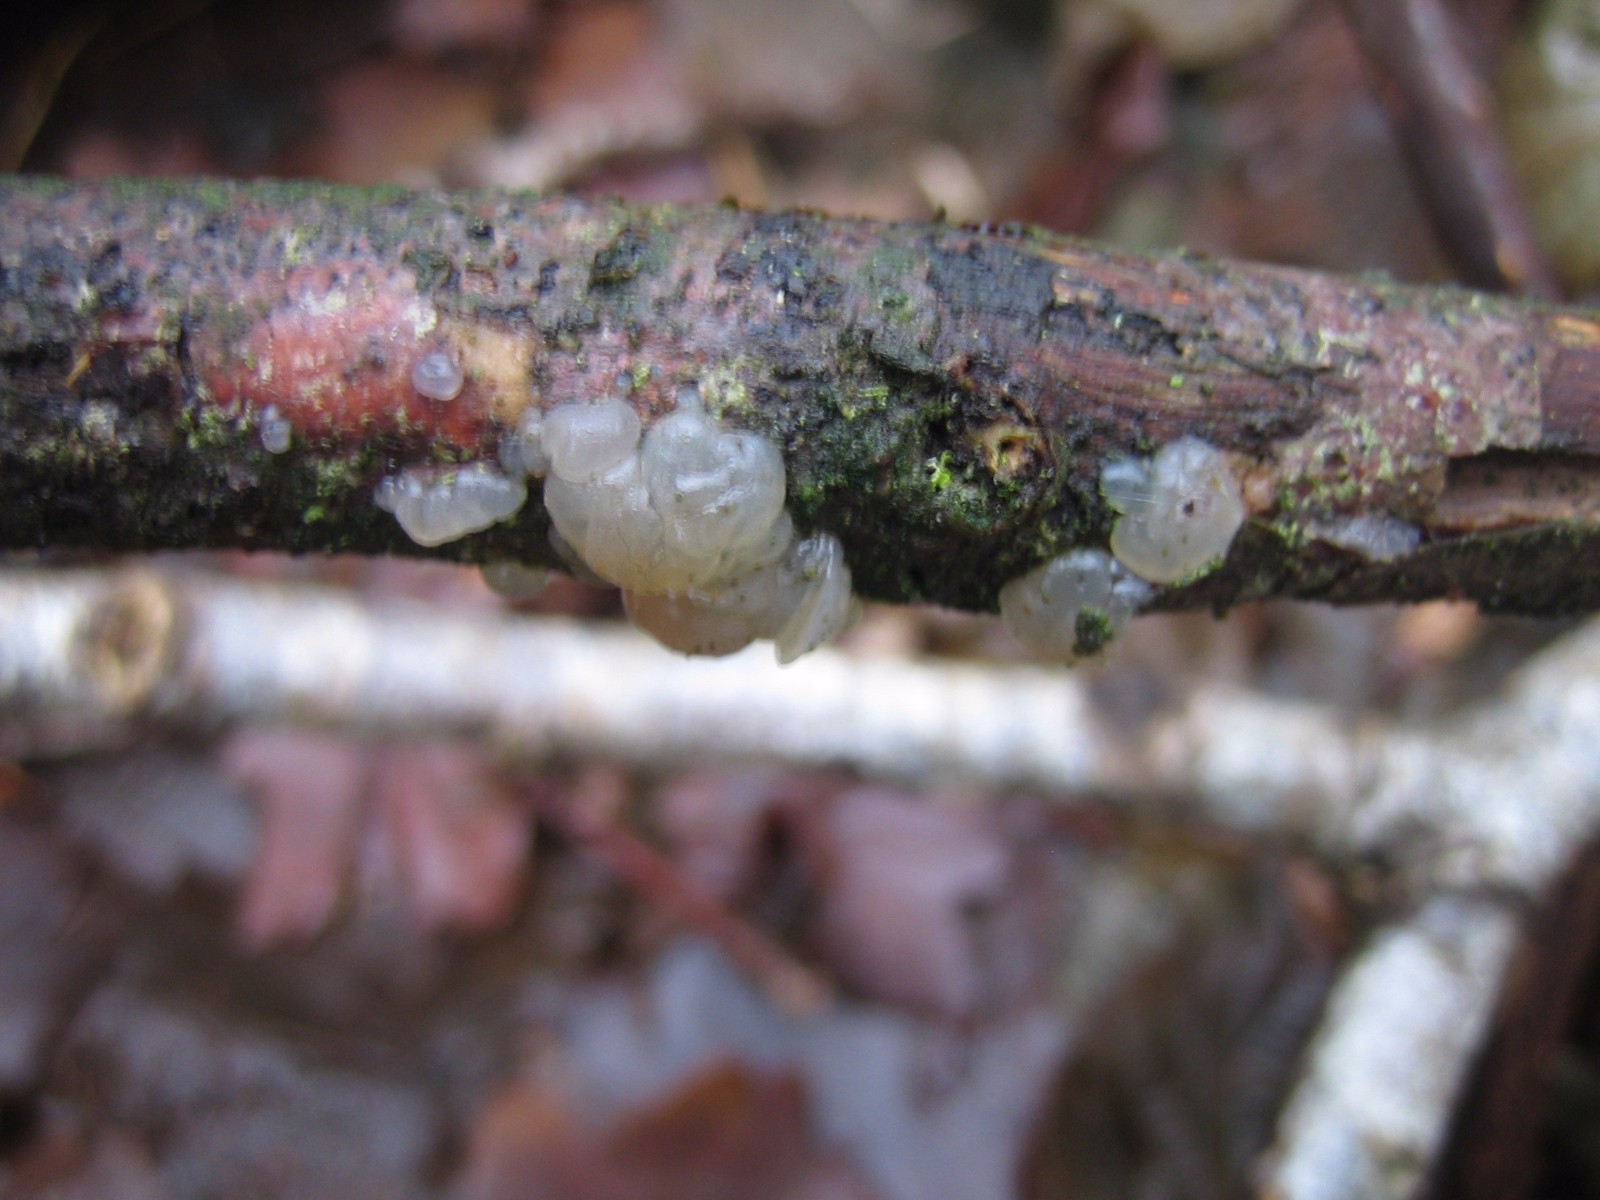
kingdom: Fungi
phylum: Basidiomycota
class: Agaricomycetes
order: Auriculariales
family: Hyaloriaceae
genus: Myxarium
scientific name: Myxarium nucleatum
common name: klar bævretop
